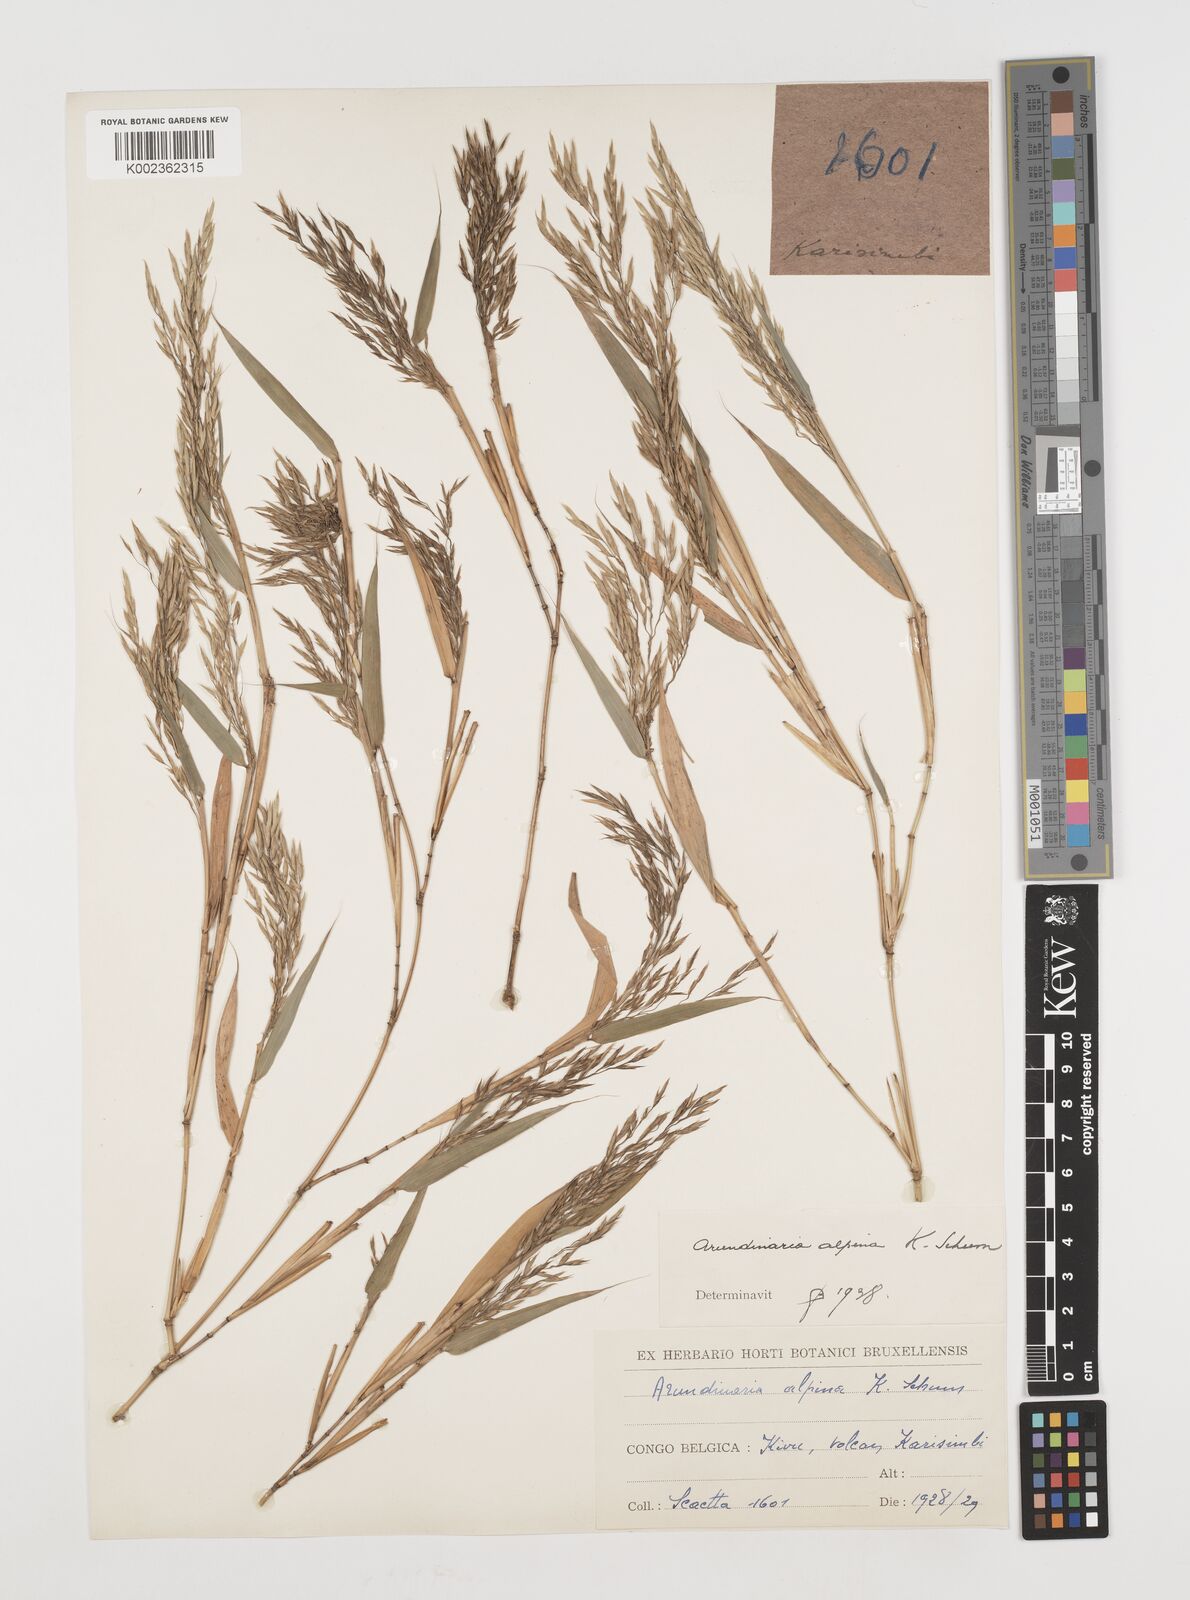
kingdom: Plantae
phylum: Tracheophyta
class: Liliopsida
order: Poales
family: Poaceae
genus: Oldeania
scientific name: Oldeania alpina
